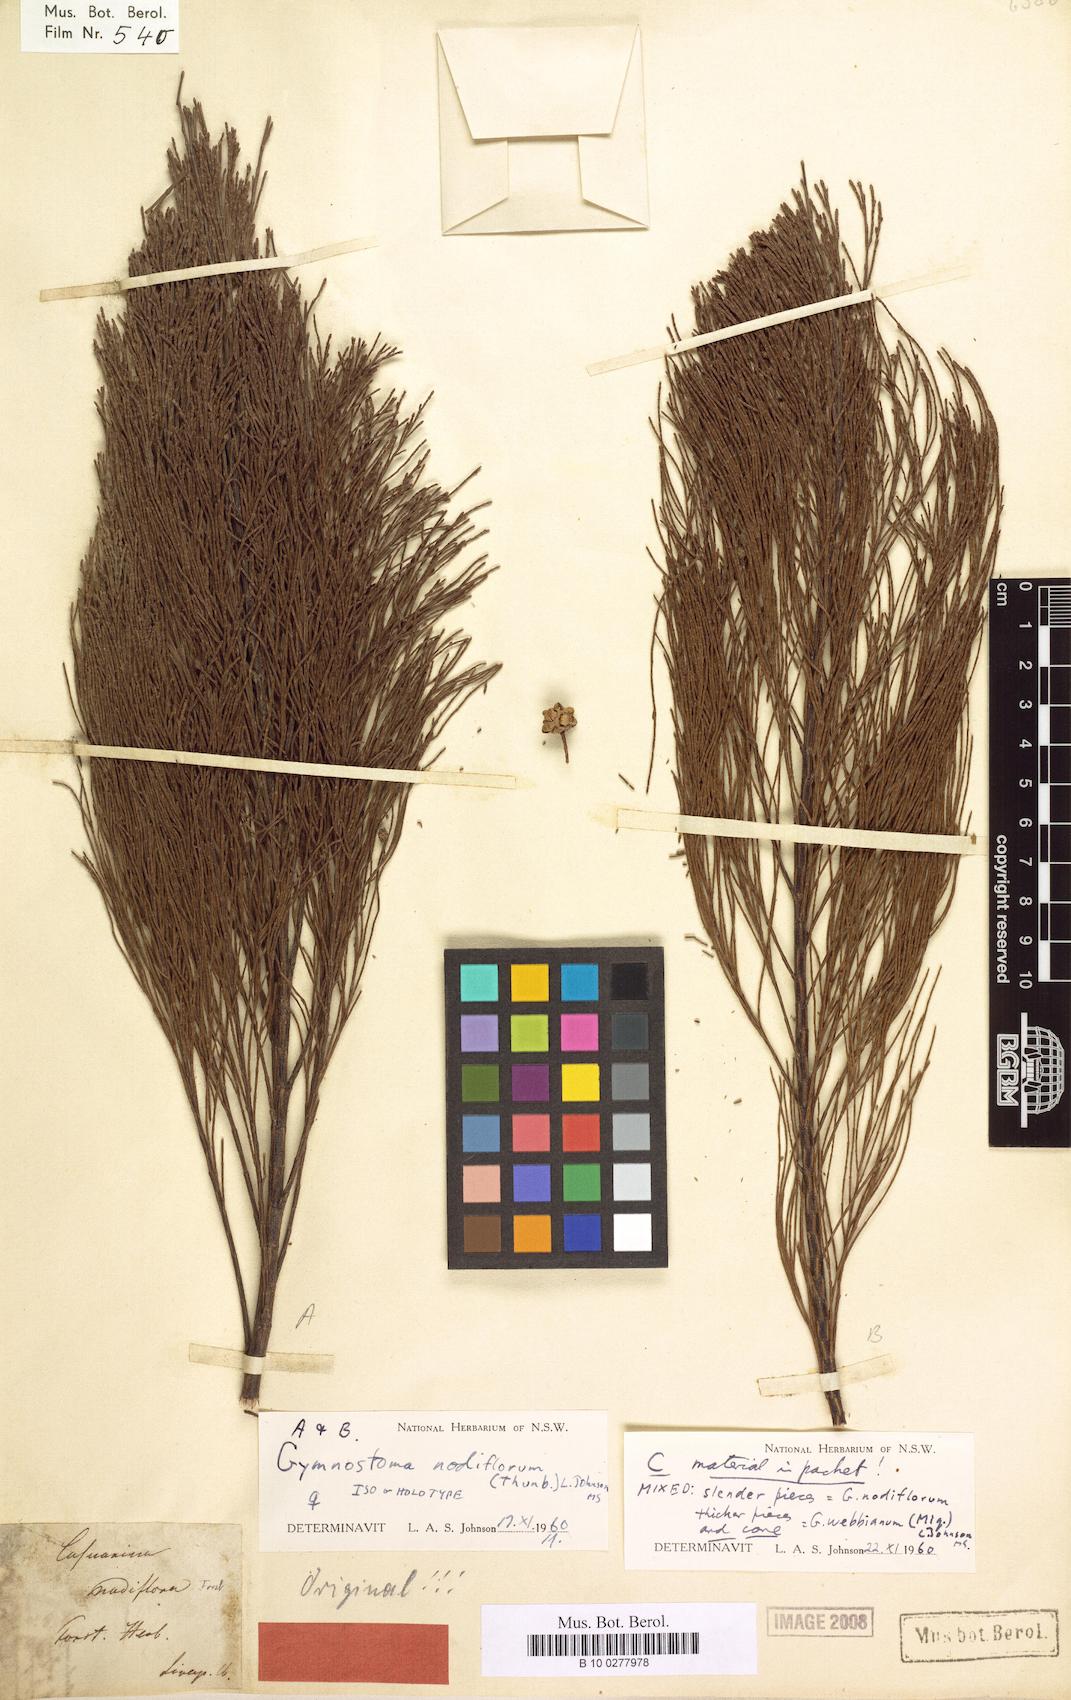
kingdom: Plantae
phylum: Tracheophyta
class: Magnoliopsida
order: Fagales
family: Casuarinaceae
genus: Gymnostoma
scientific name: Gymnostoma nodiflorum
